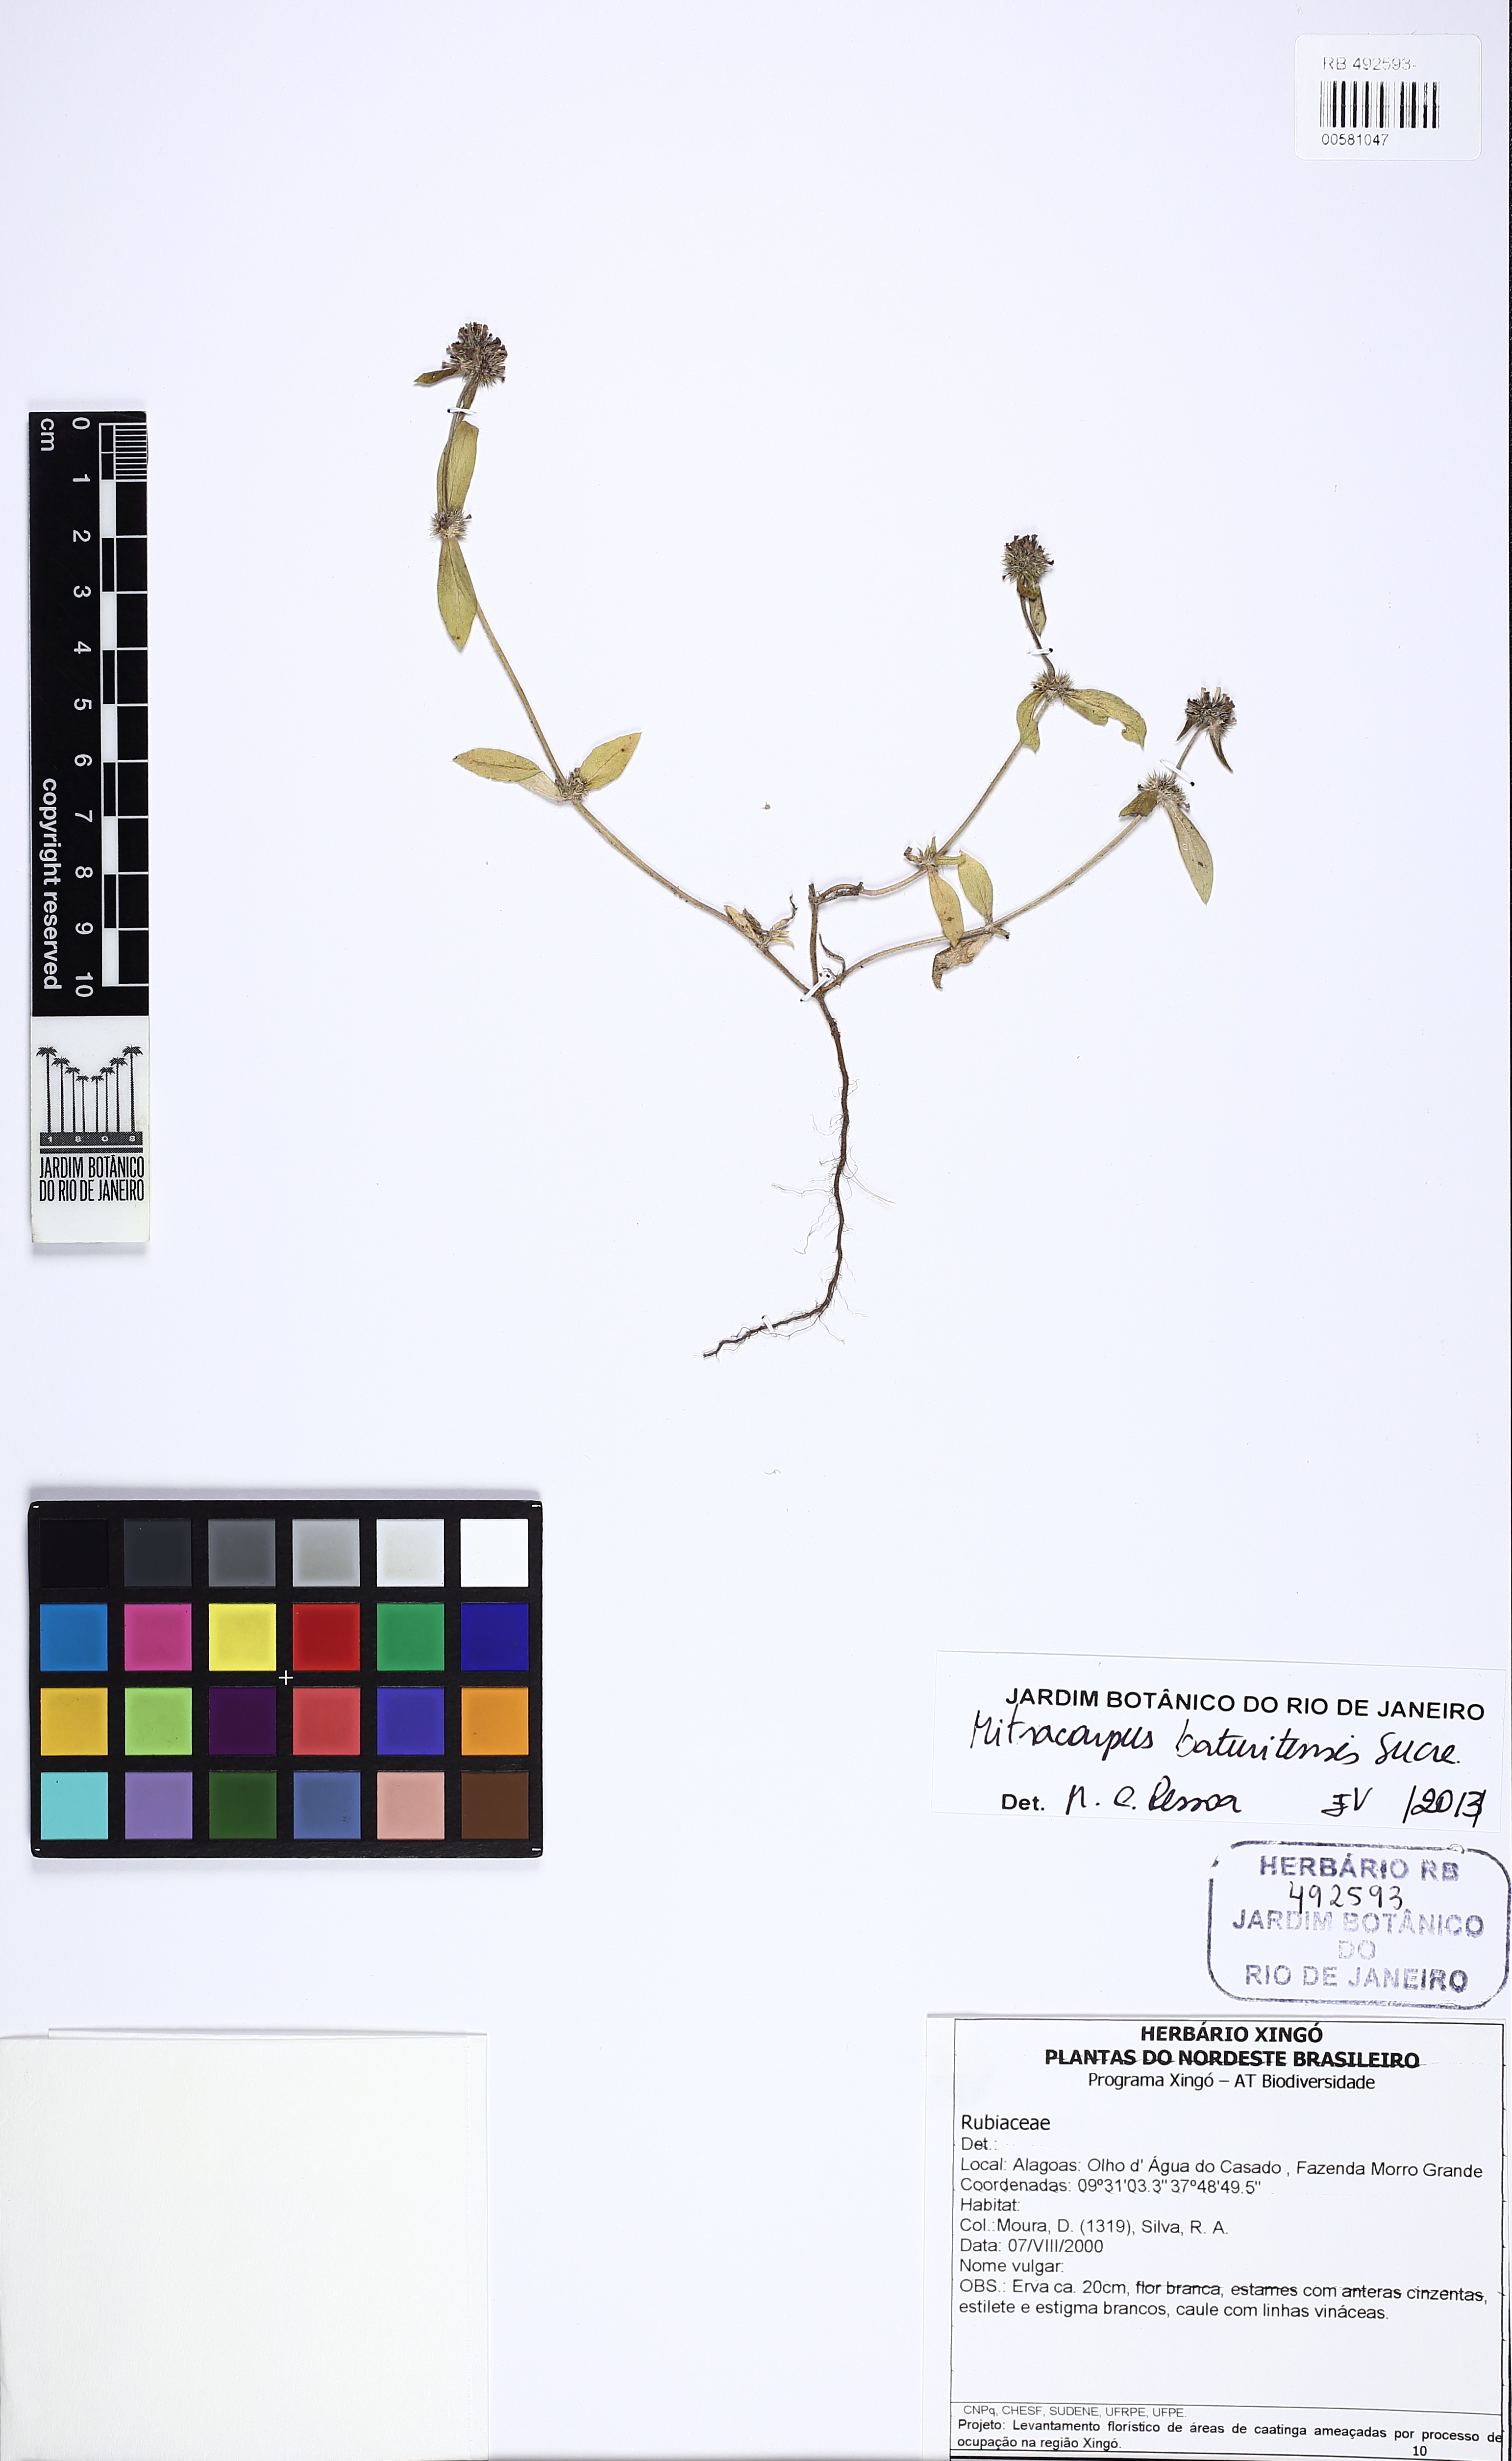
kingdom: Plantae
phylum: Tracheophyta
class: Magnoliopsida
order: Gentianales
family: Rubiaceae
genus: Mitracarpus
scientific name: Mitracarpus baturitensis
